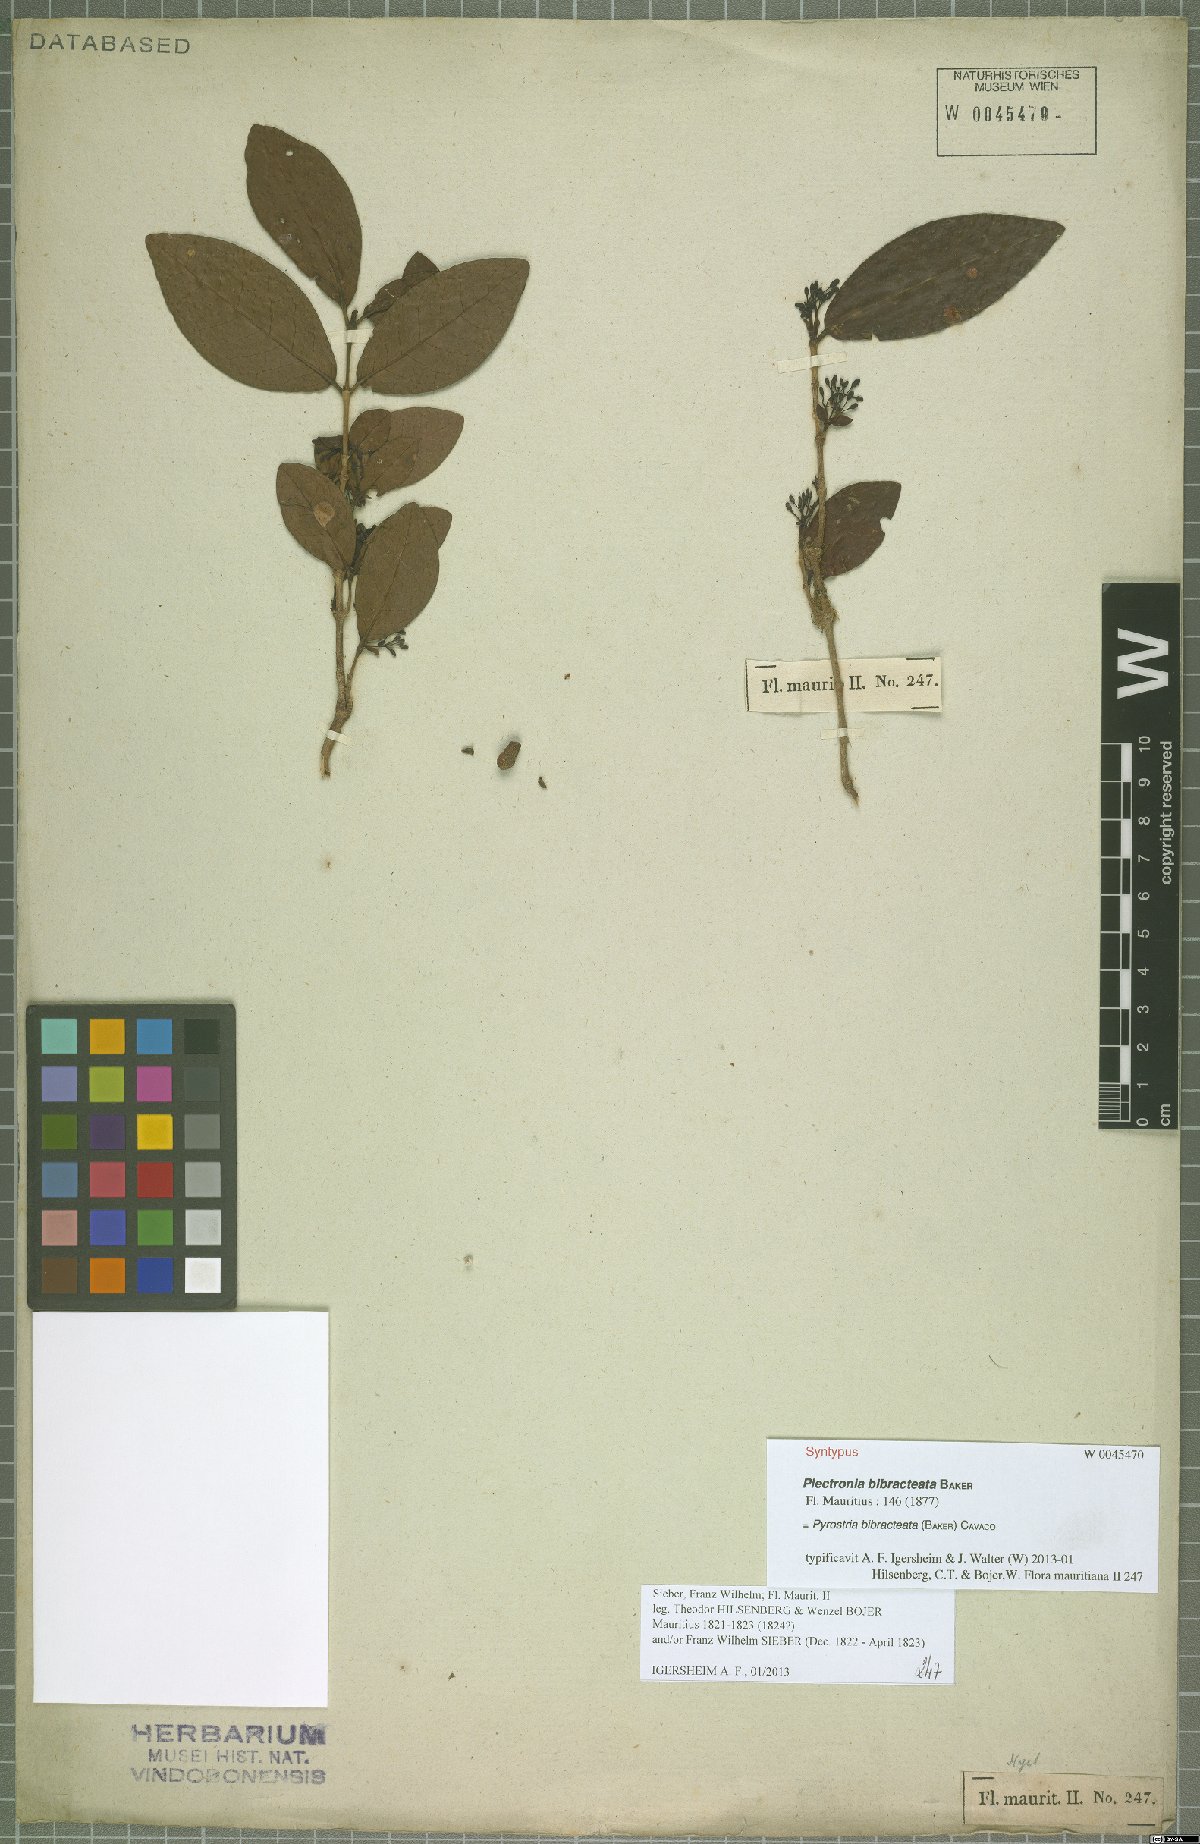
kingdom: Plantae
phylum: Tracheophyta
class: Magnoliopsida
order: Gentianales
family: Rubiaceae
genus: Pyrostria
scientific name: Pyrostria bibracteata
